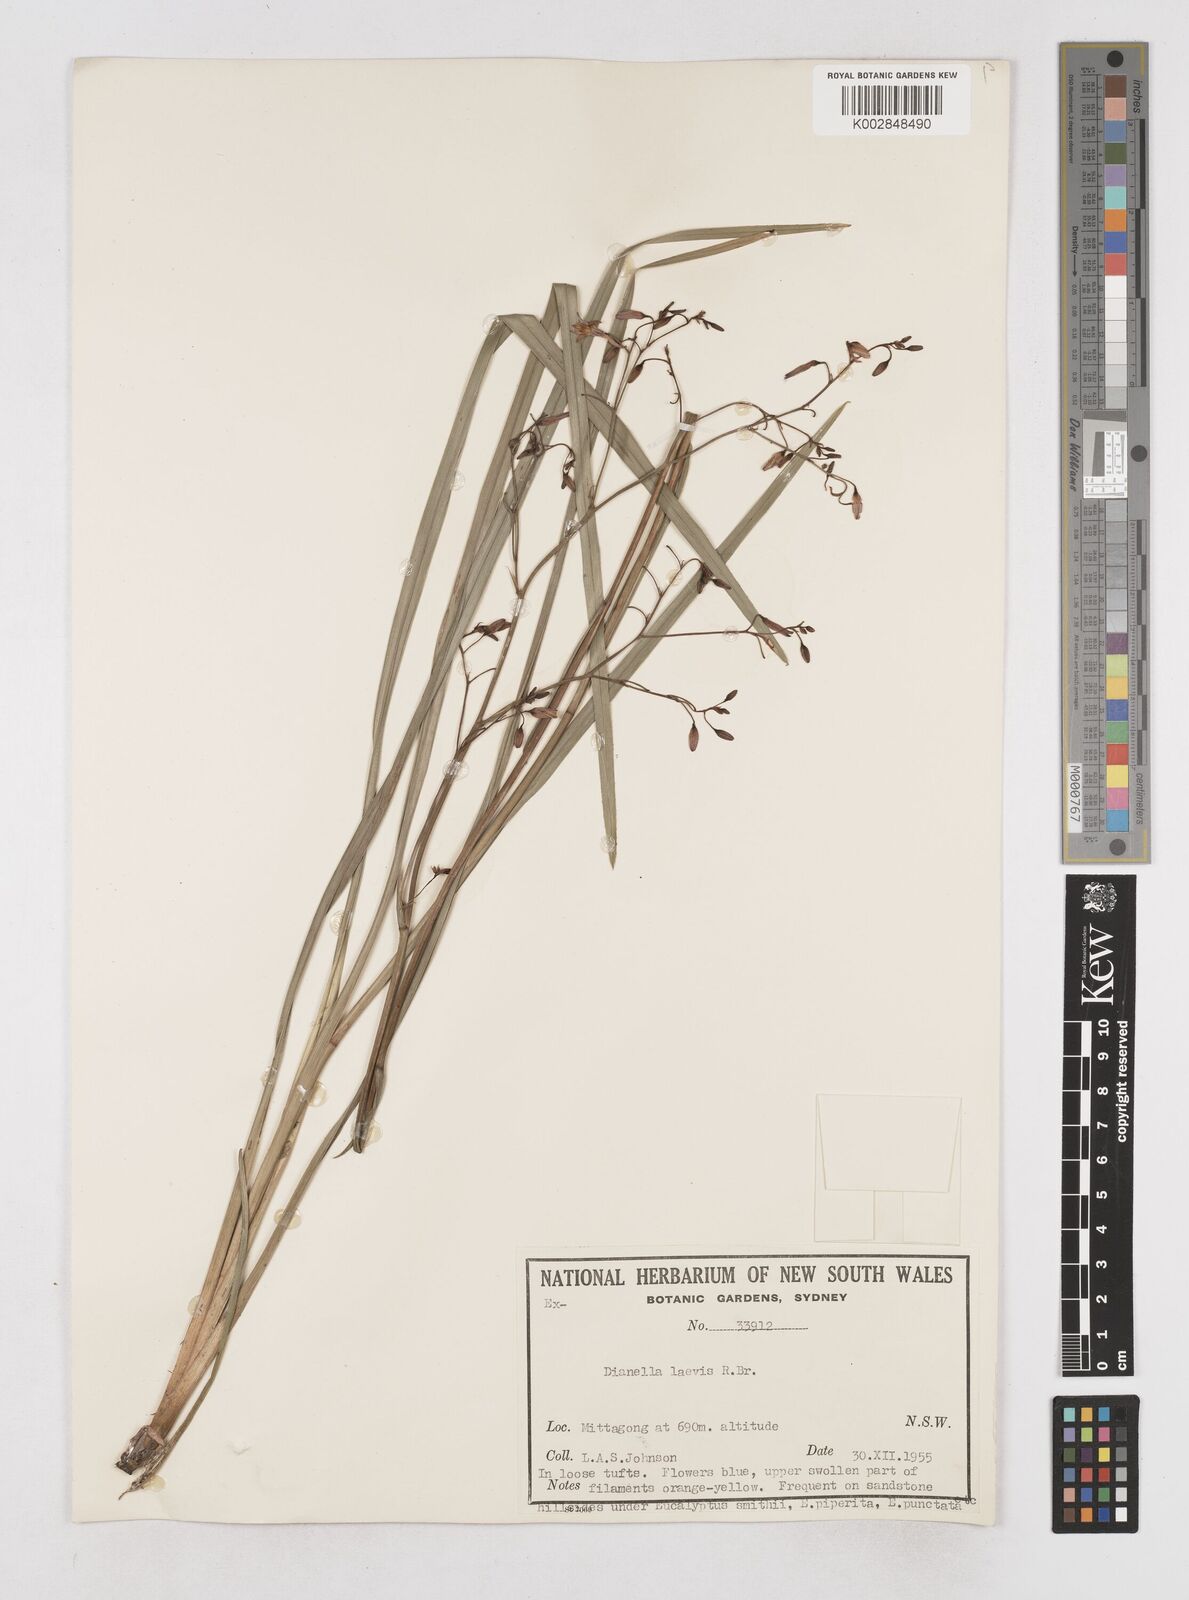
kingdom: Plantae
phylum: Tracheophyta
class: Liliopsida
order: Asparagales
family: Asphodelaceae
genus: Dianella
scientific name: Dianella longifolia
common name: Blue flax-lily
